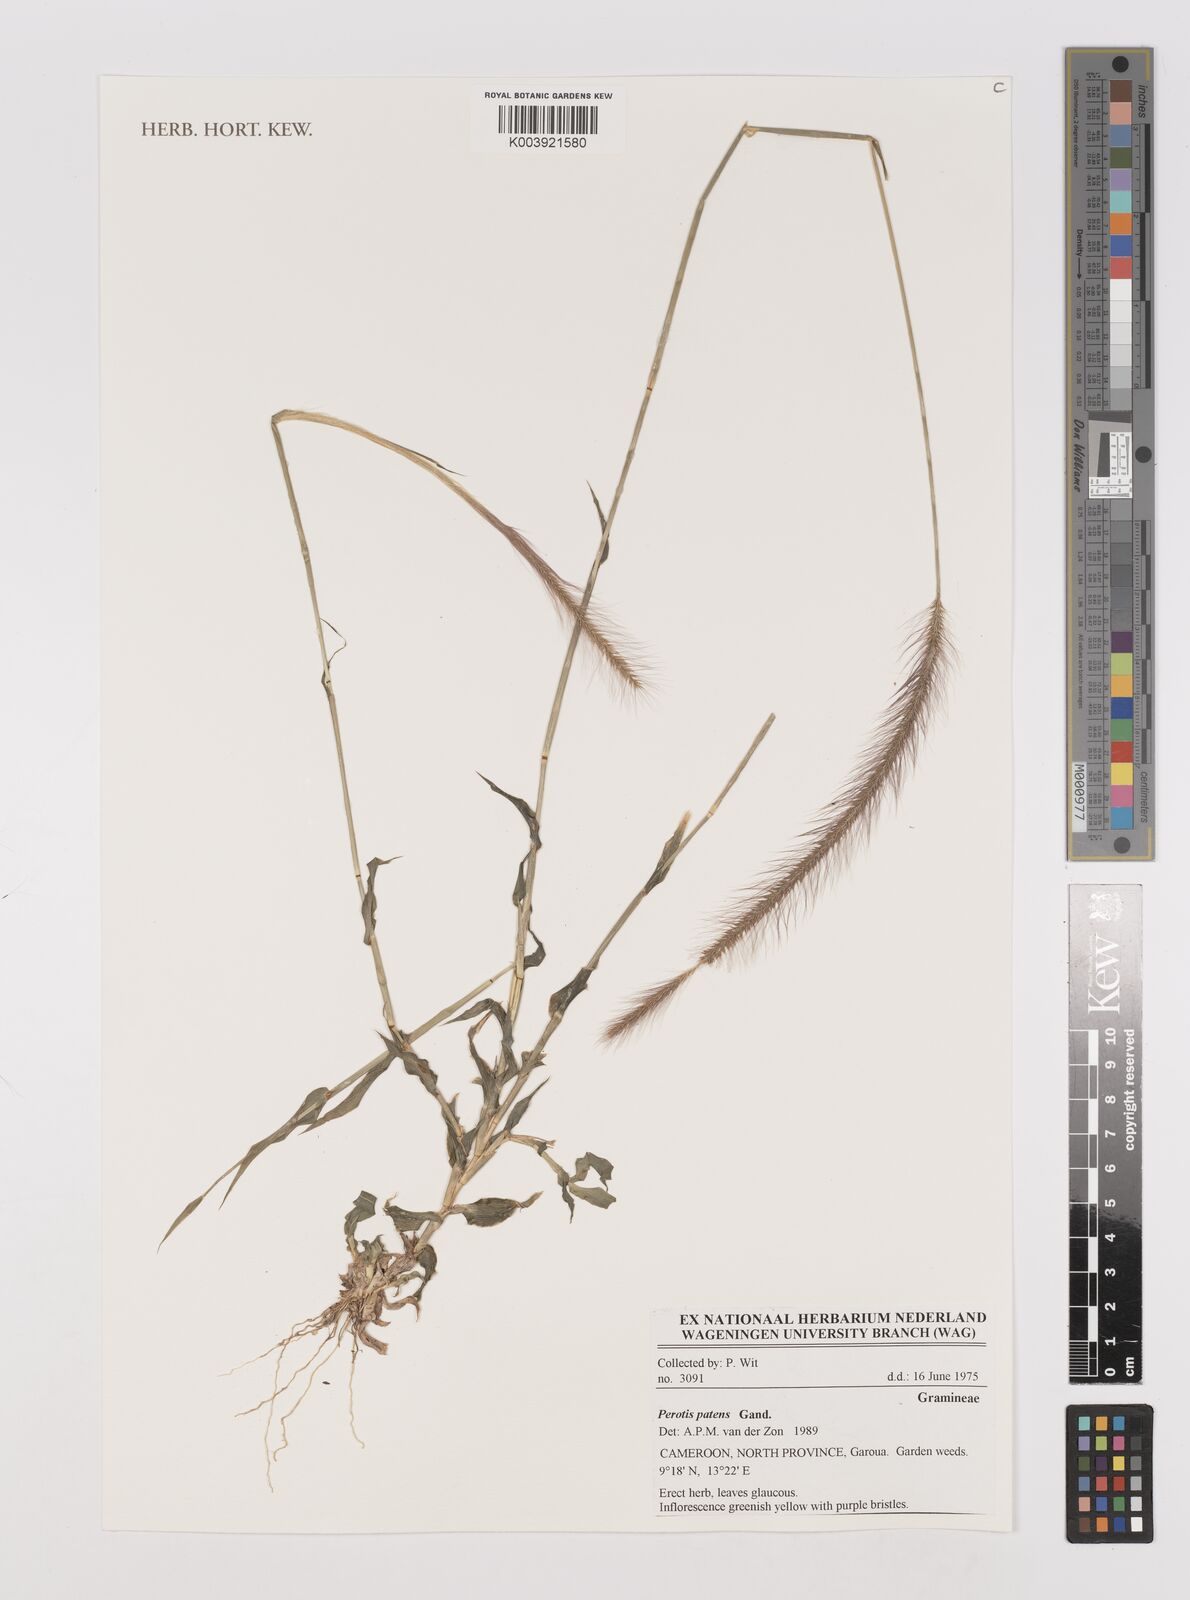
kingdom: Plantae
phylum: Tracheophyta
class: Liliopsida
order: Poales
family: Poaceae
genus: Perotis
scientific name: Perotis patens
